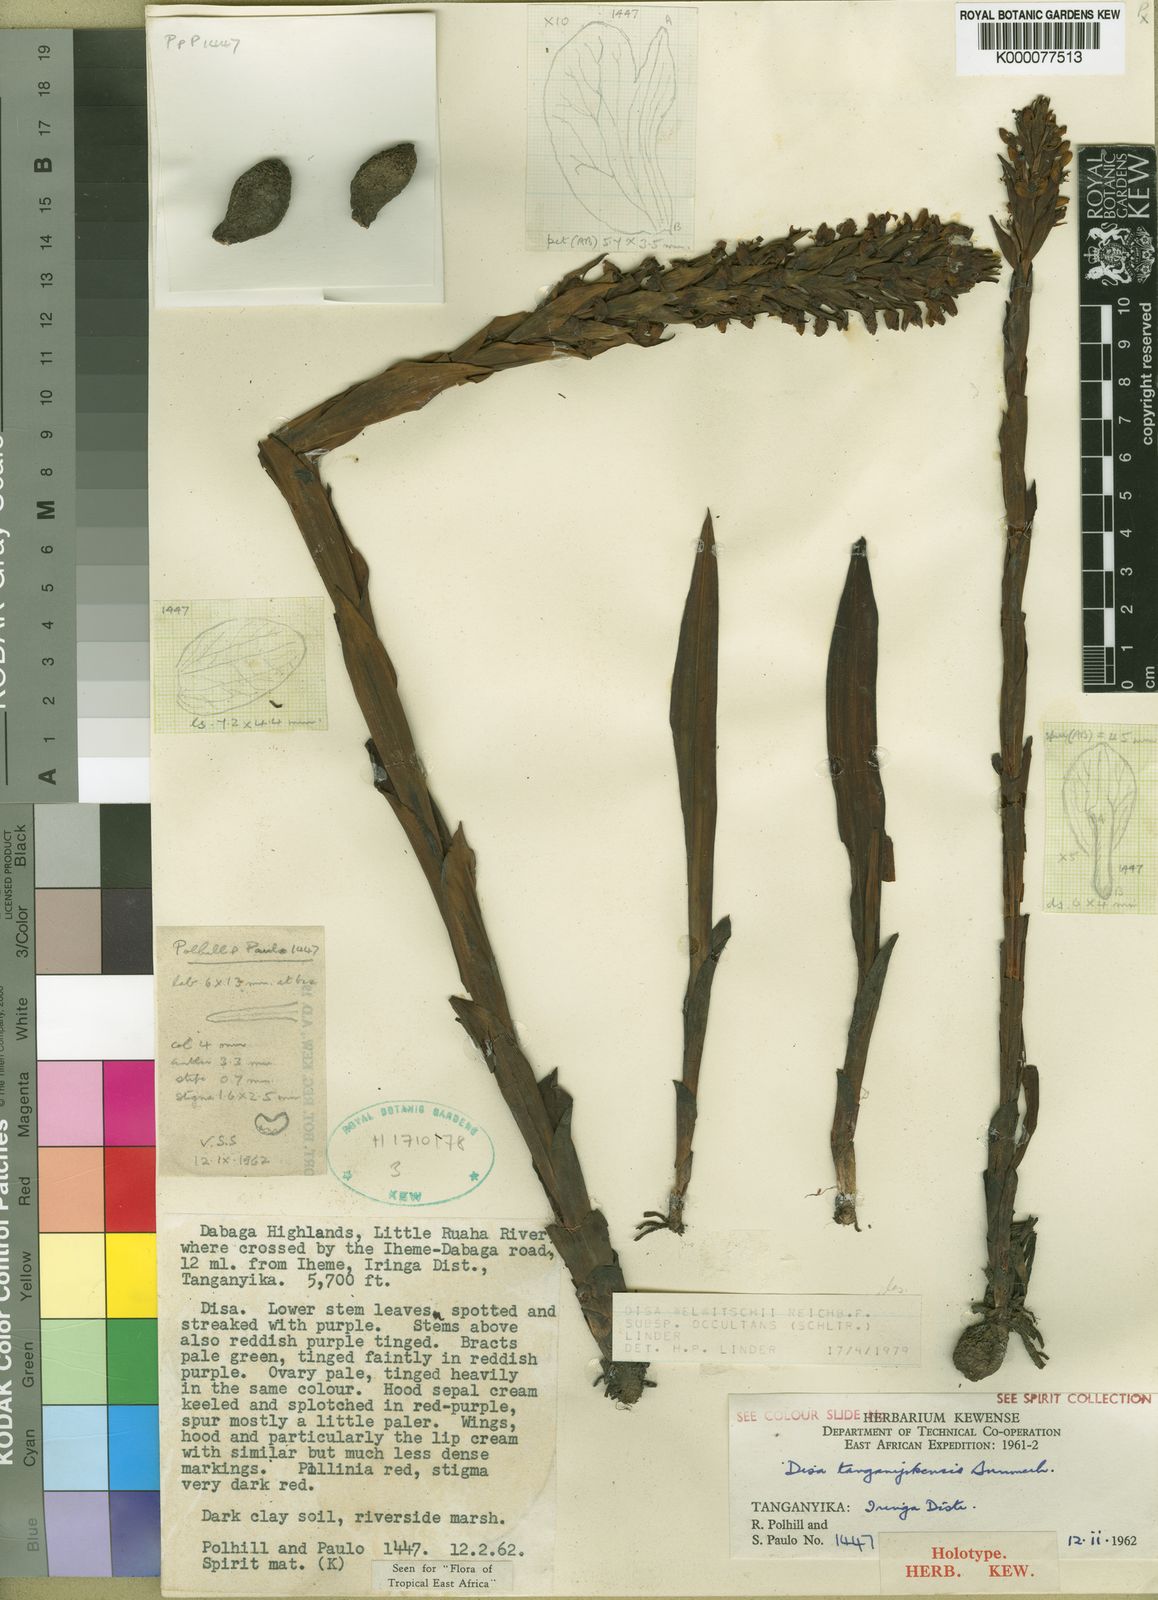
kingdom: Plantae
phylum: Tracheophyta
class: Liliopsida
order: Asparagales
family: Orchidaceae
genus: Disa
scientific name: Disa welwitschii
